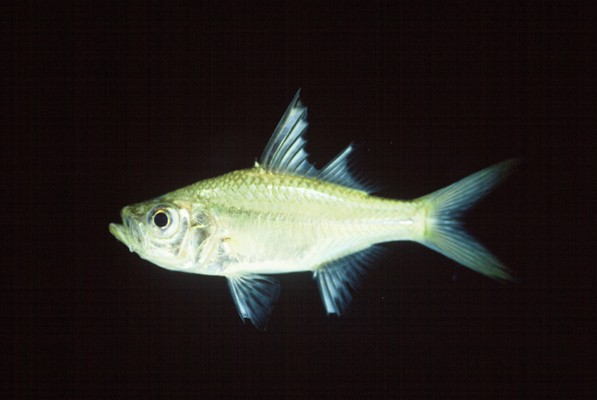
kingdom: Animalia
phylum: Chordata
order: Perciformes
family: Ambassidae
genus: Ambassis
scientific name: Ambassis ambassis
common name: Commerson's glassy perchlet
